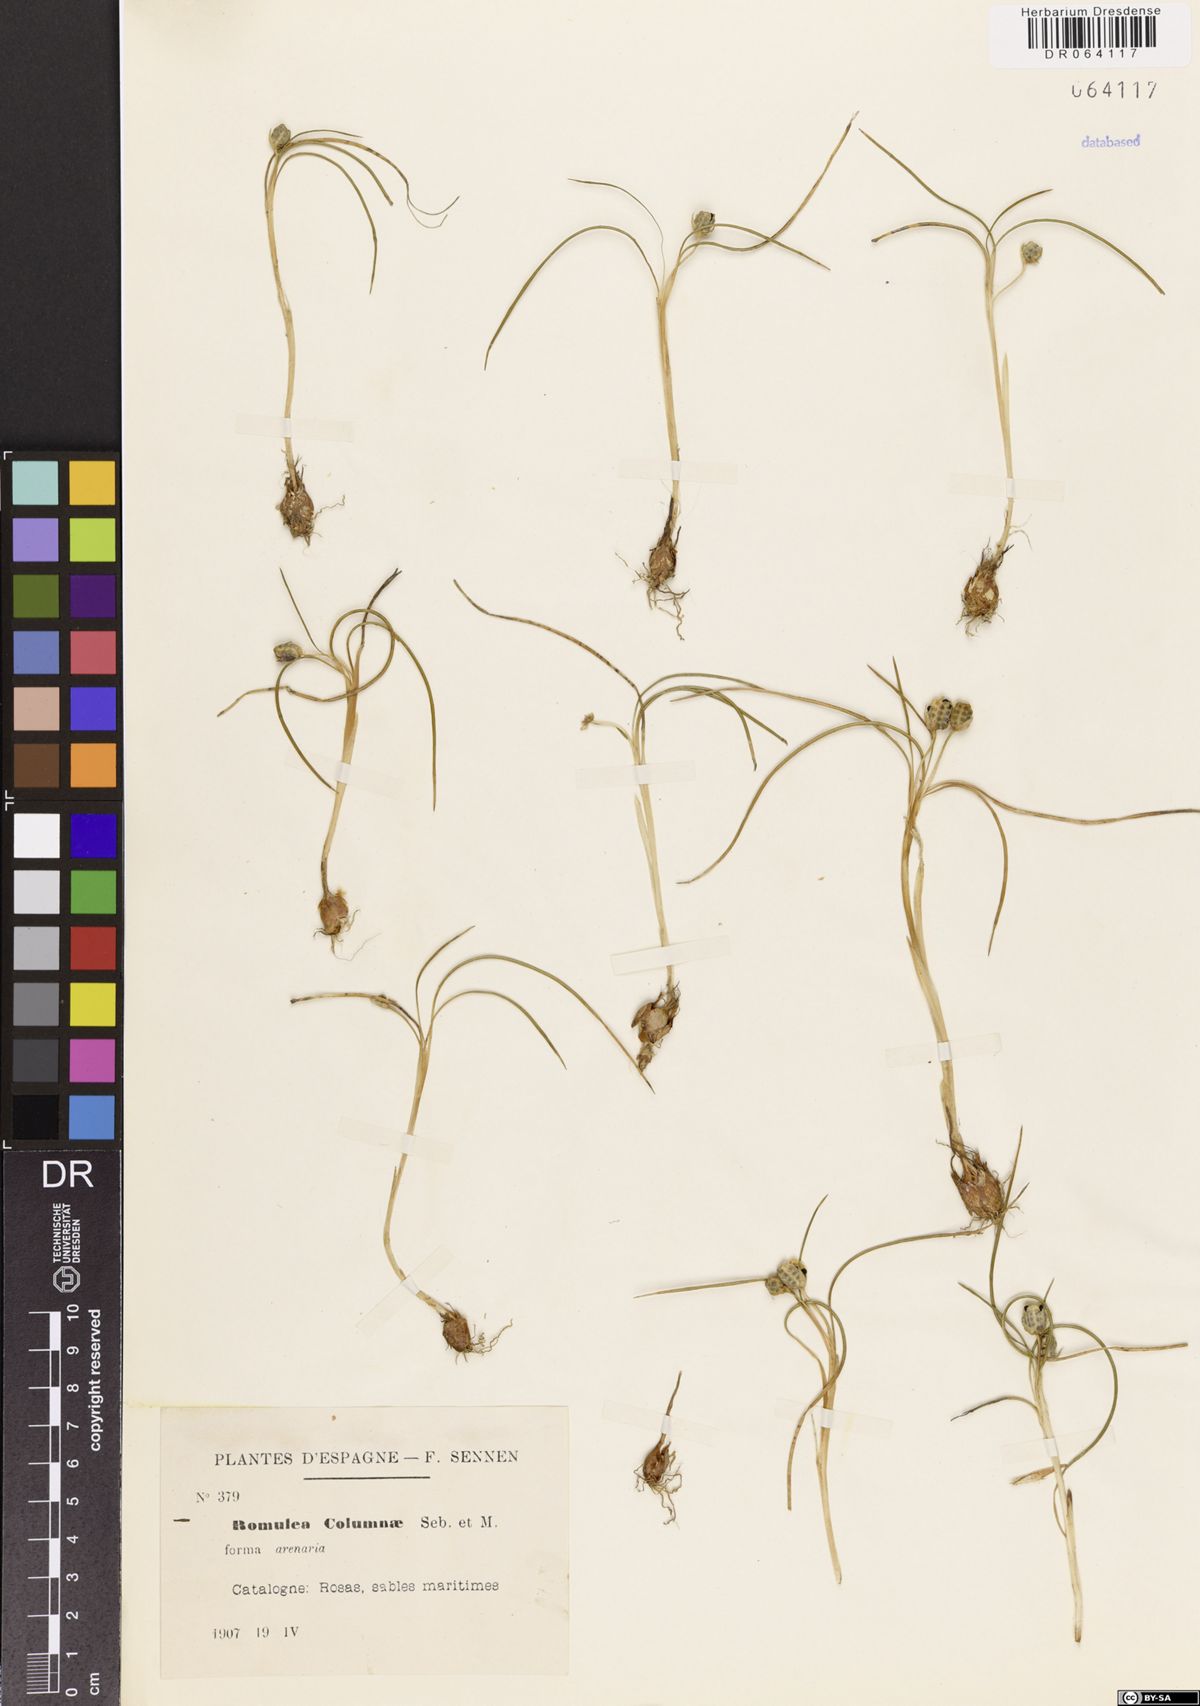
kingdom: Plantae
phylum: Tracheophyta
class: Liliopsida
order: Asparagales
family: Iridaceae
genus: Romulea
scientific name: Romulea columnae
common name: Sand-crocus
